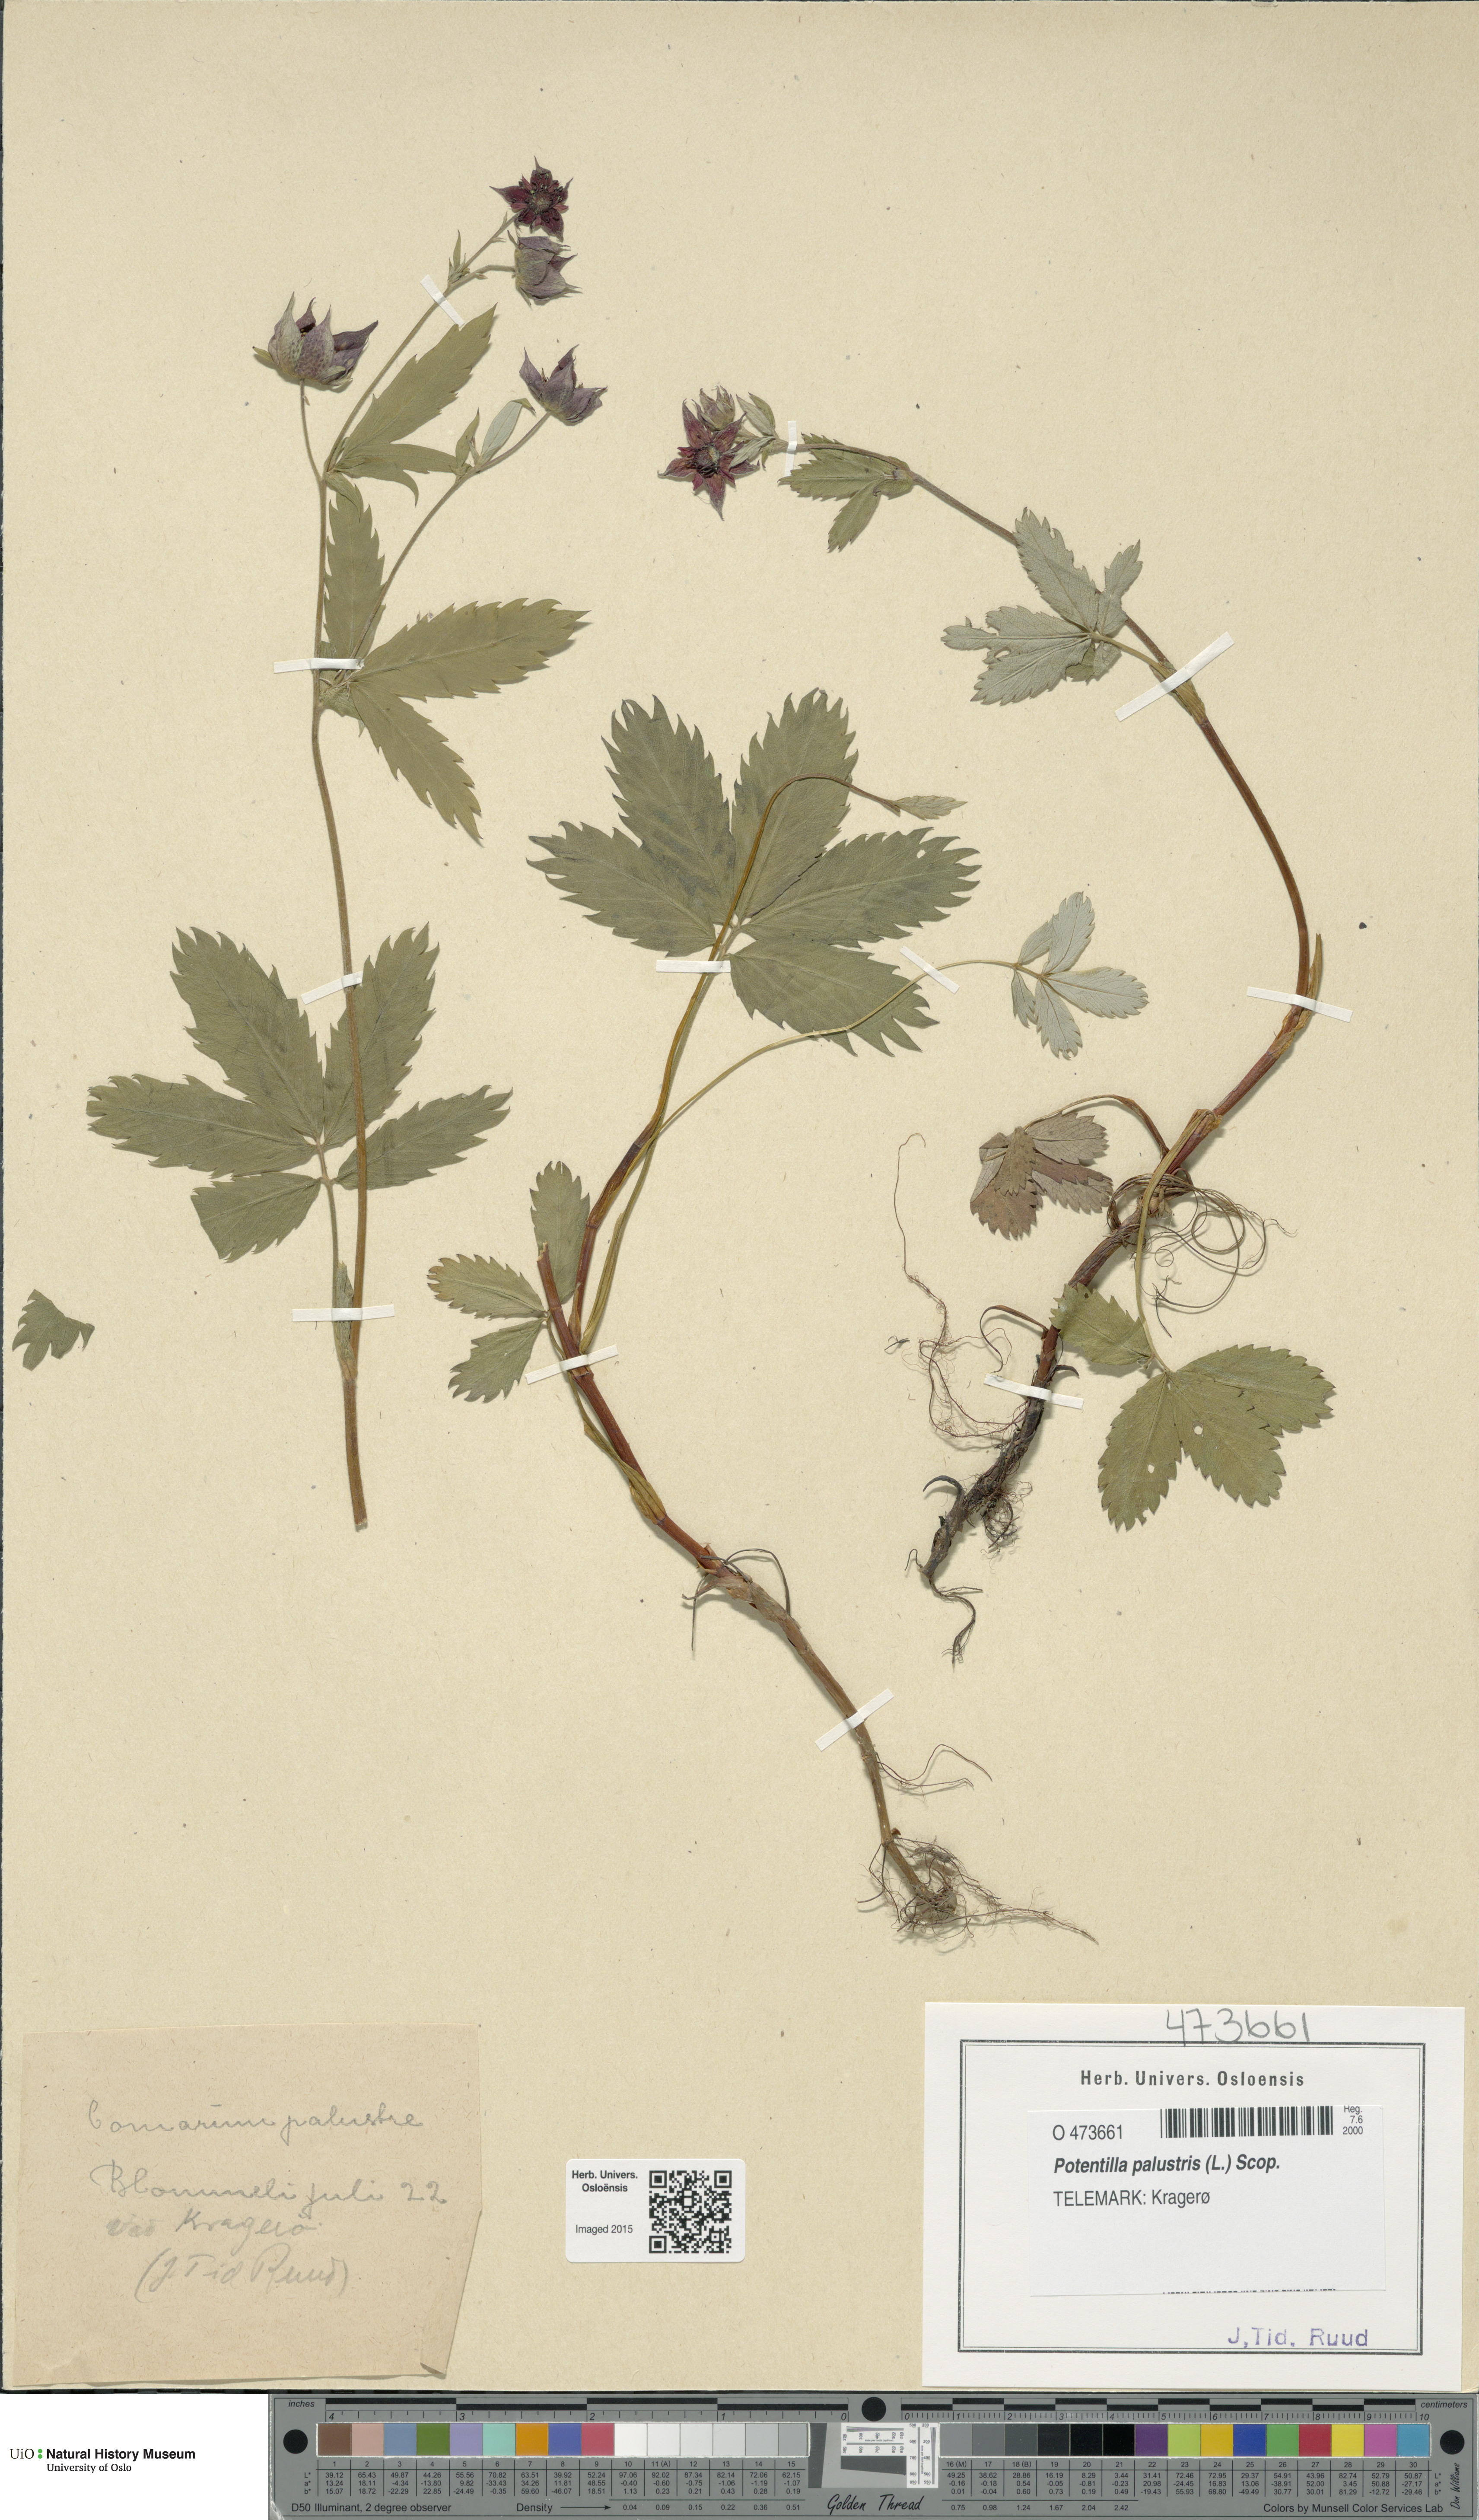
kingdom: Plantae
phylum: Tracheophyta
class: Magnoliopsida
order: Rosales
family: Rosaceae
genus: Comarum
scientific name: Comarum palustre
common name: Marsh cinquefoil
